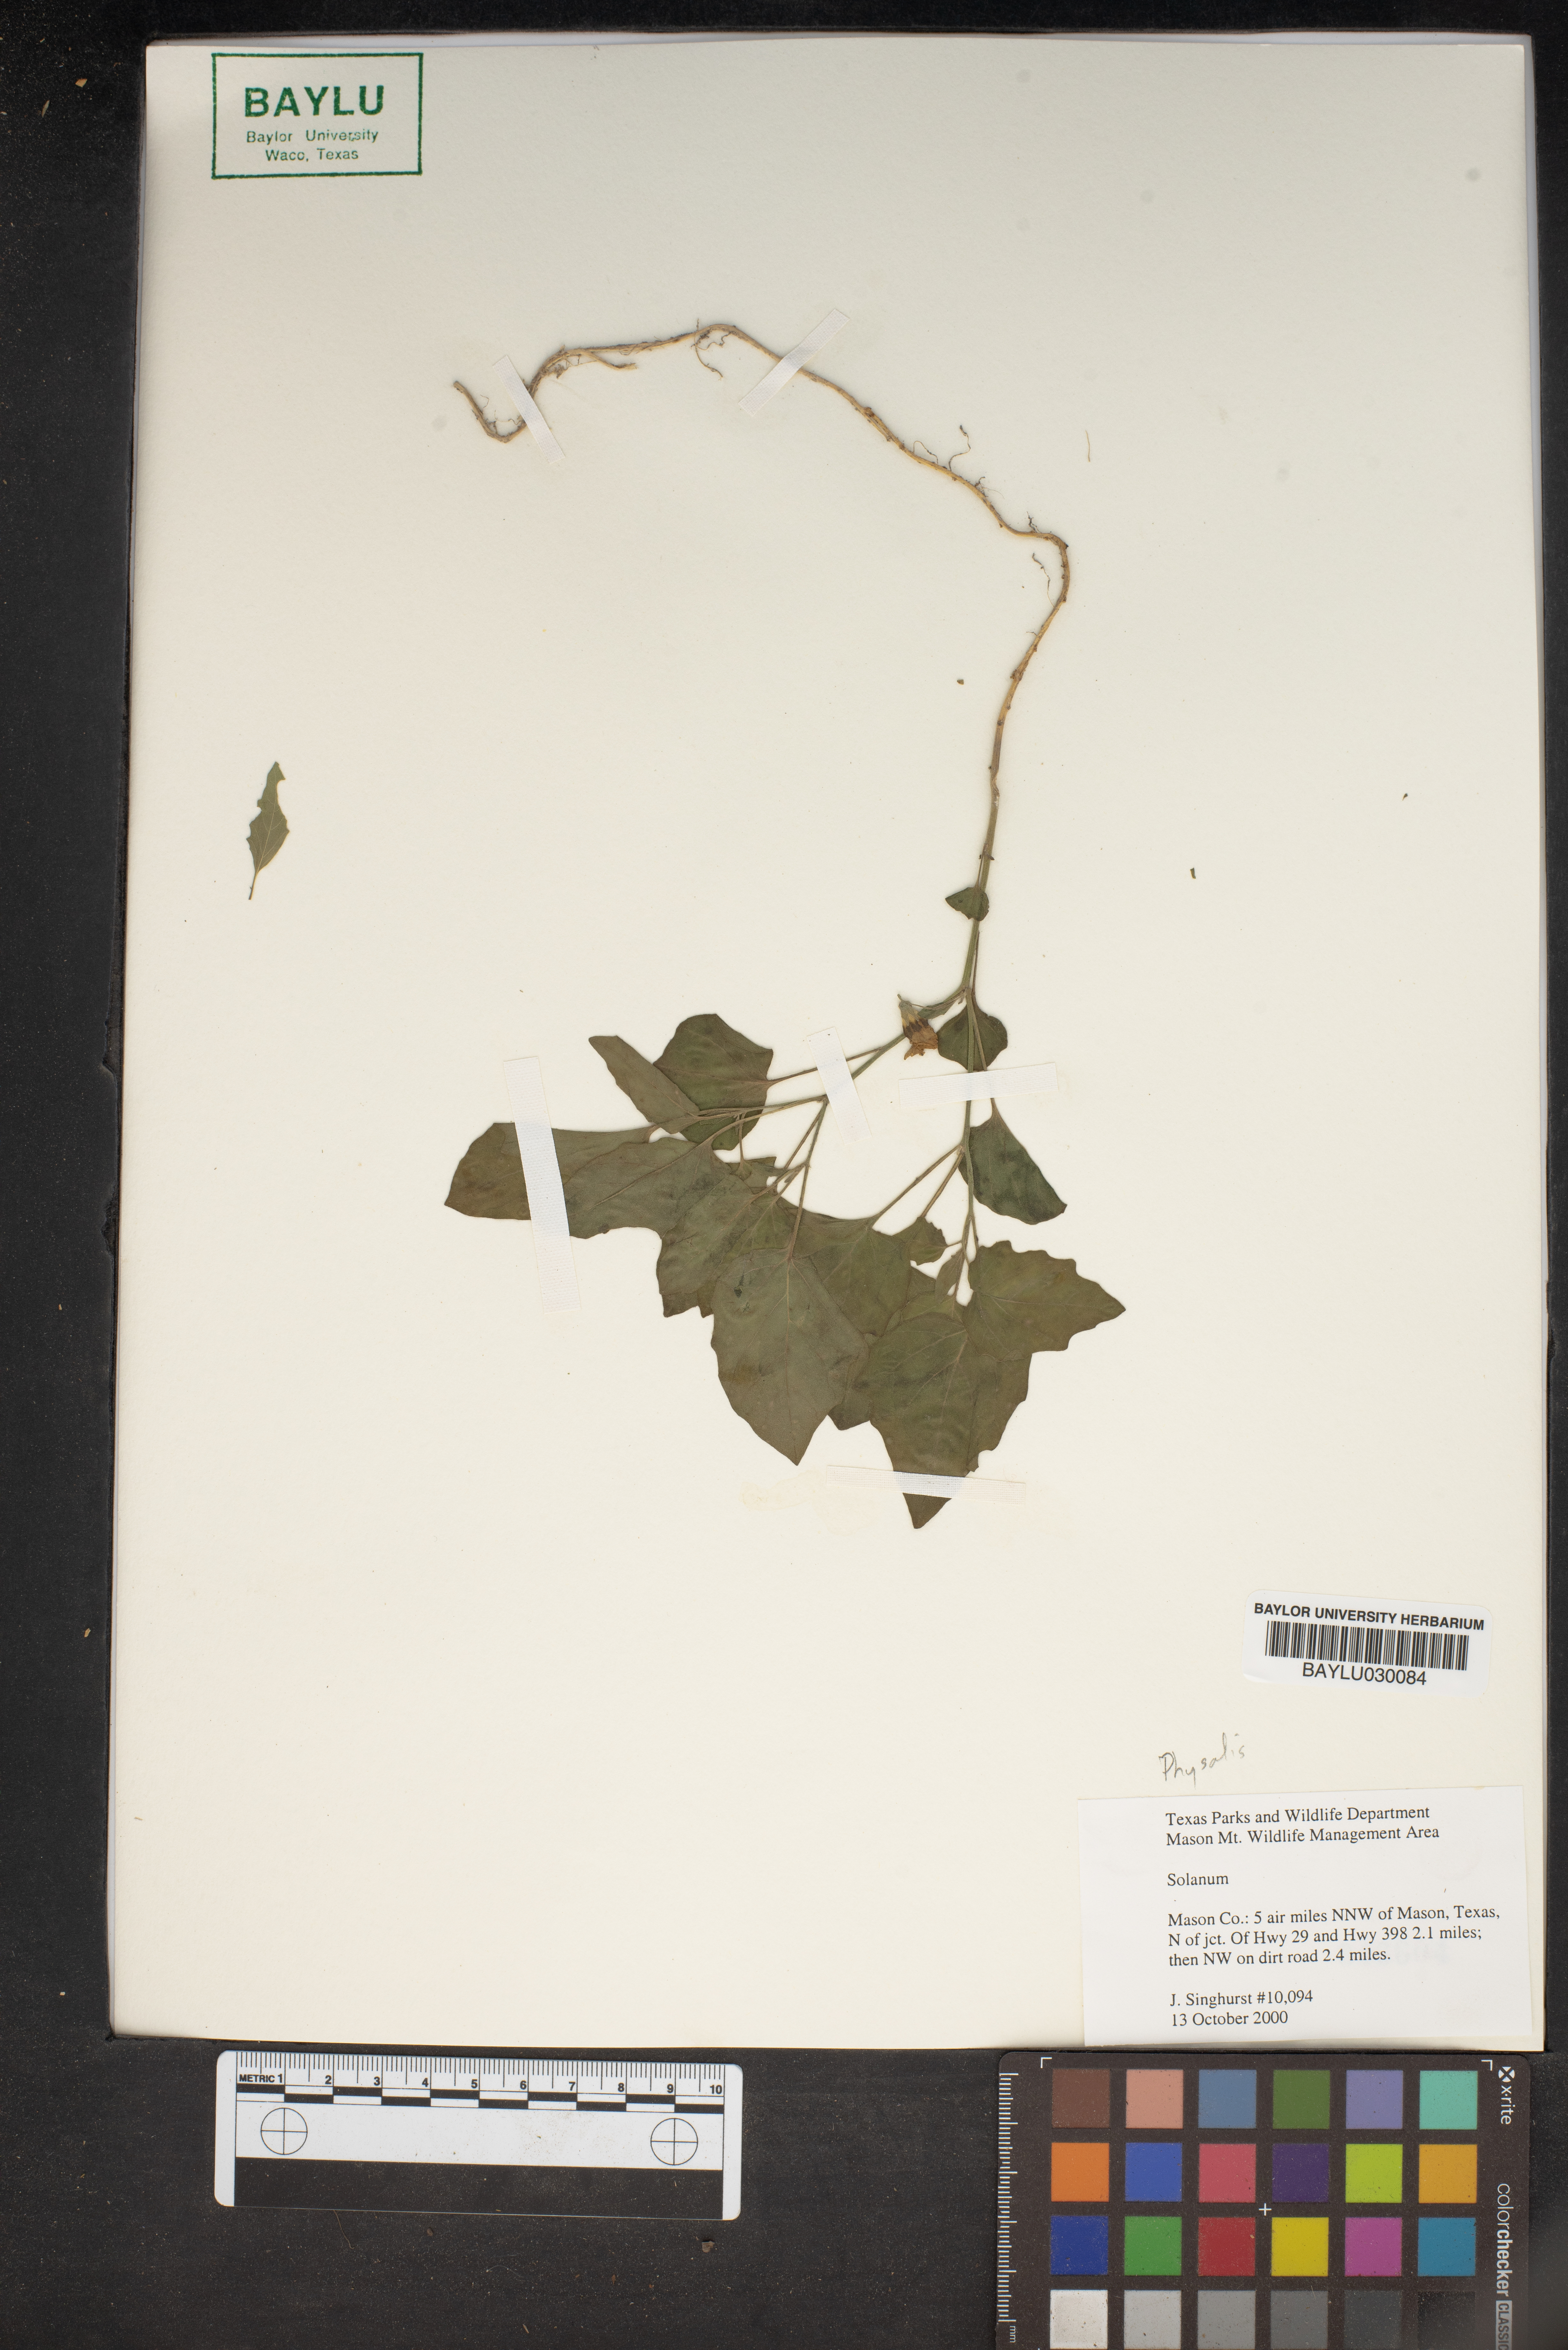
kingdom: Plantae
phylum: Tracheophyta
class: Magnoliopsida
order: Solanales
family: Solanaceae
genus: Solanum
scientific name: Solanum
